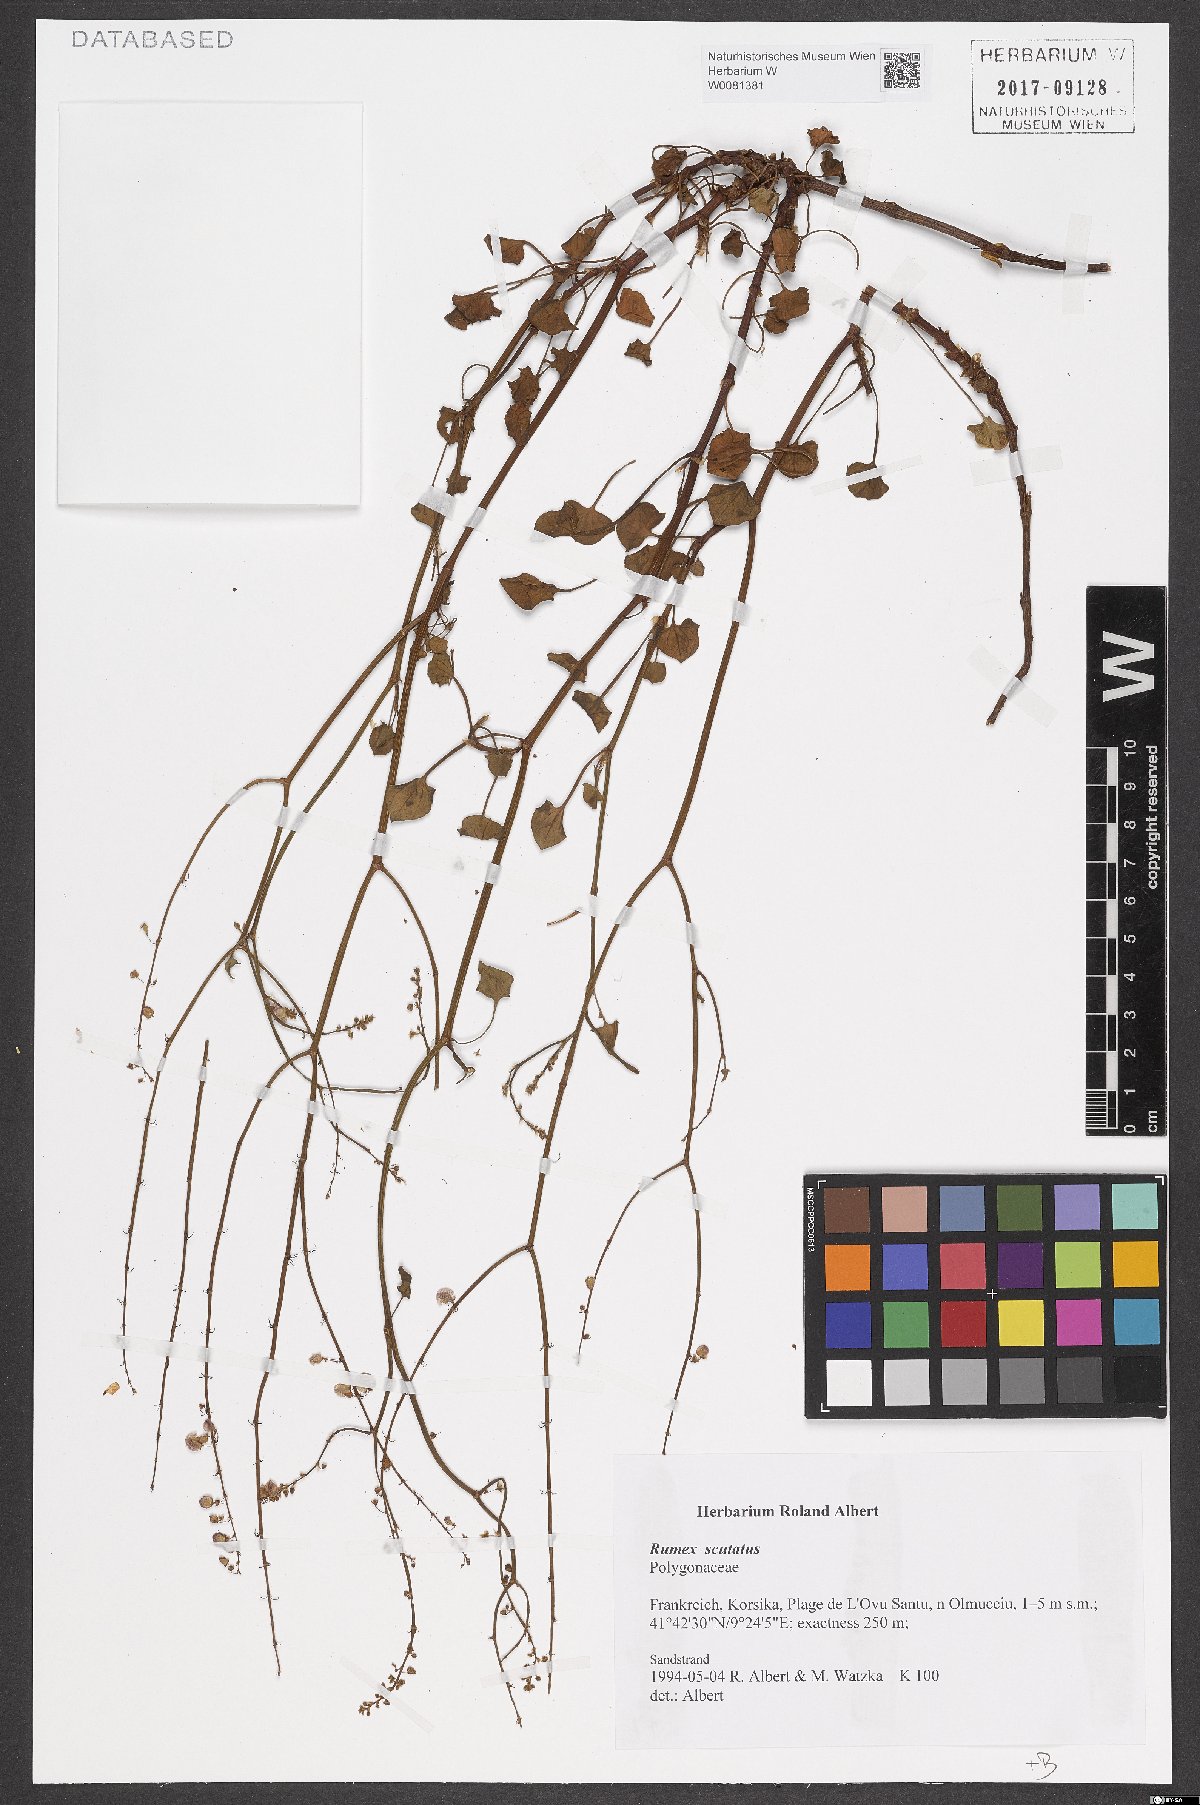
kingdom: Plantae
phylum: Tracheophyta
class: Magnoliopsida
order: Caryophyllales
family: Polygonaceae
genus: Rumex
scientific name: Rumex scutatus
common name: French sorrel
